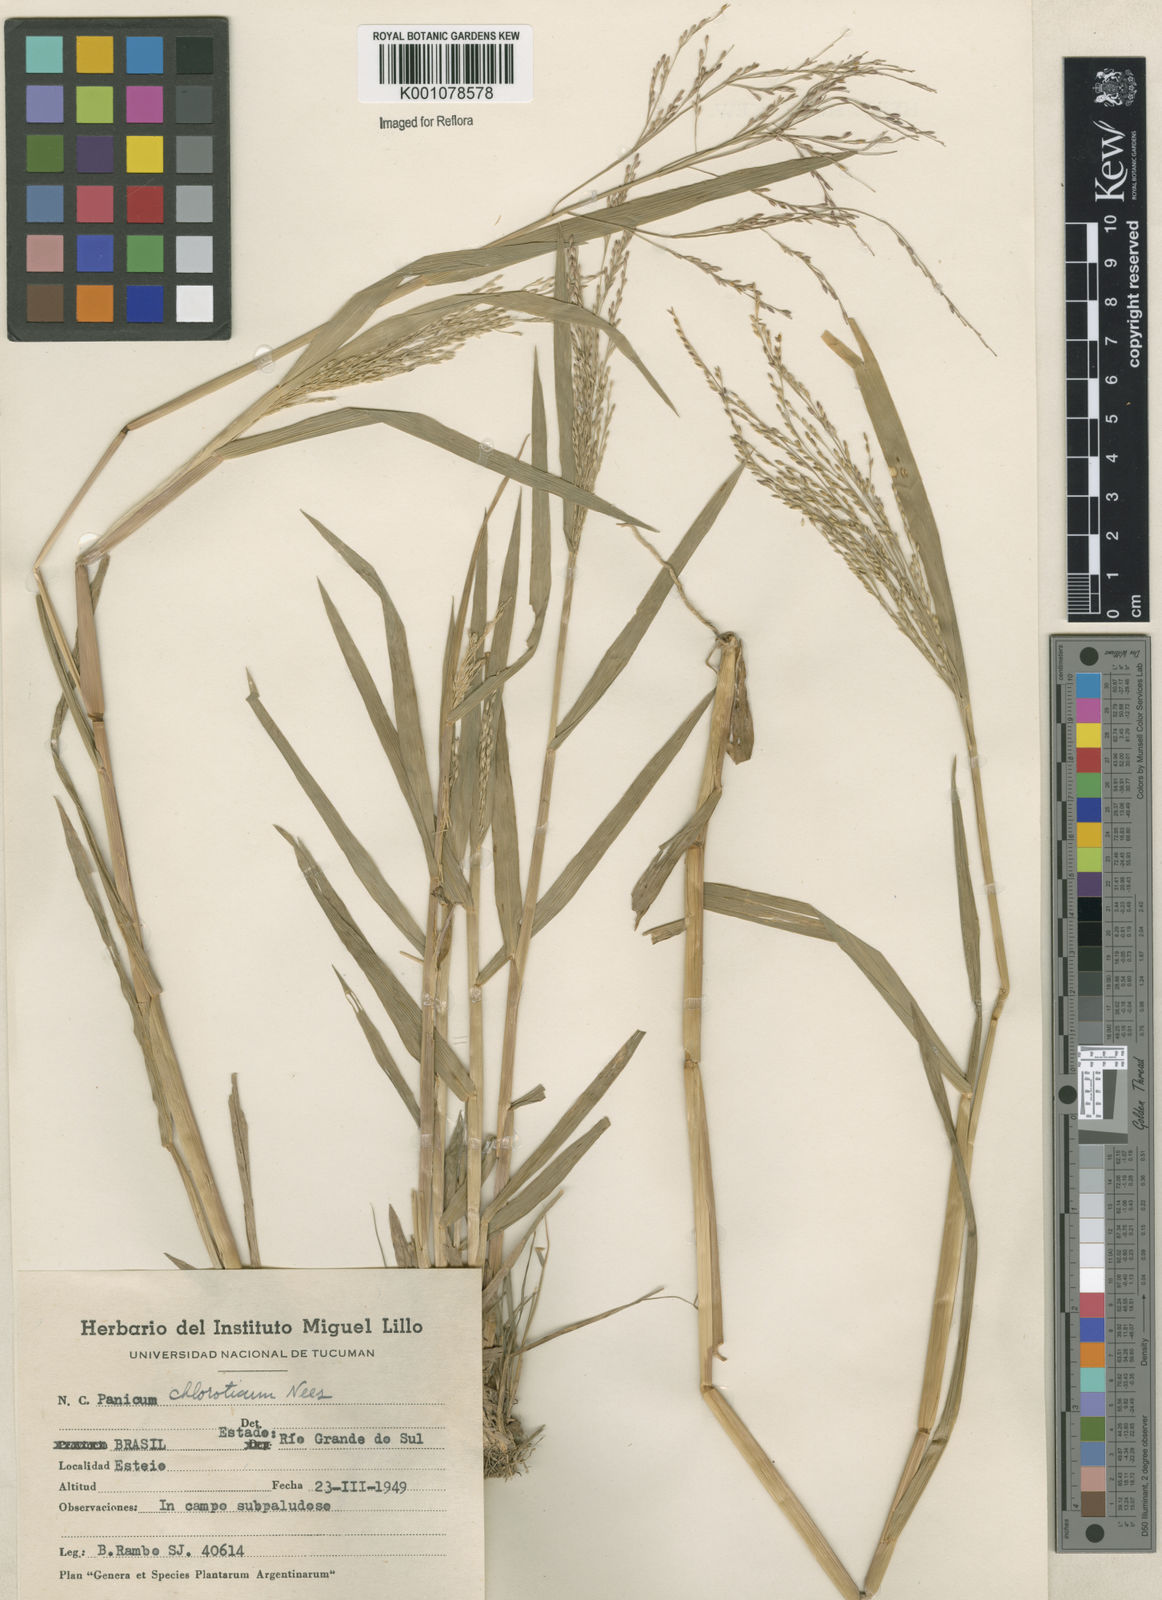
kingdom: Plantae
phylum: Tracheophyta
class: Liliopsida
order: Poales
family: Poaceae
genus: Panicum
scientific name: Panicum dichotomiflorum
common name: Autumn millet
